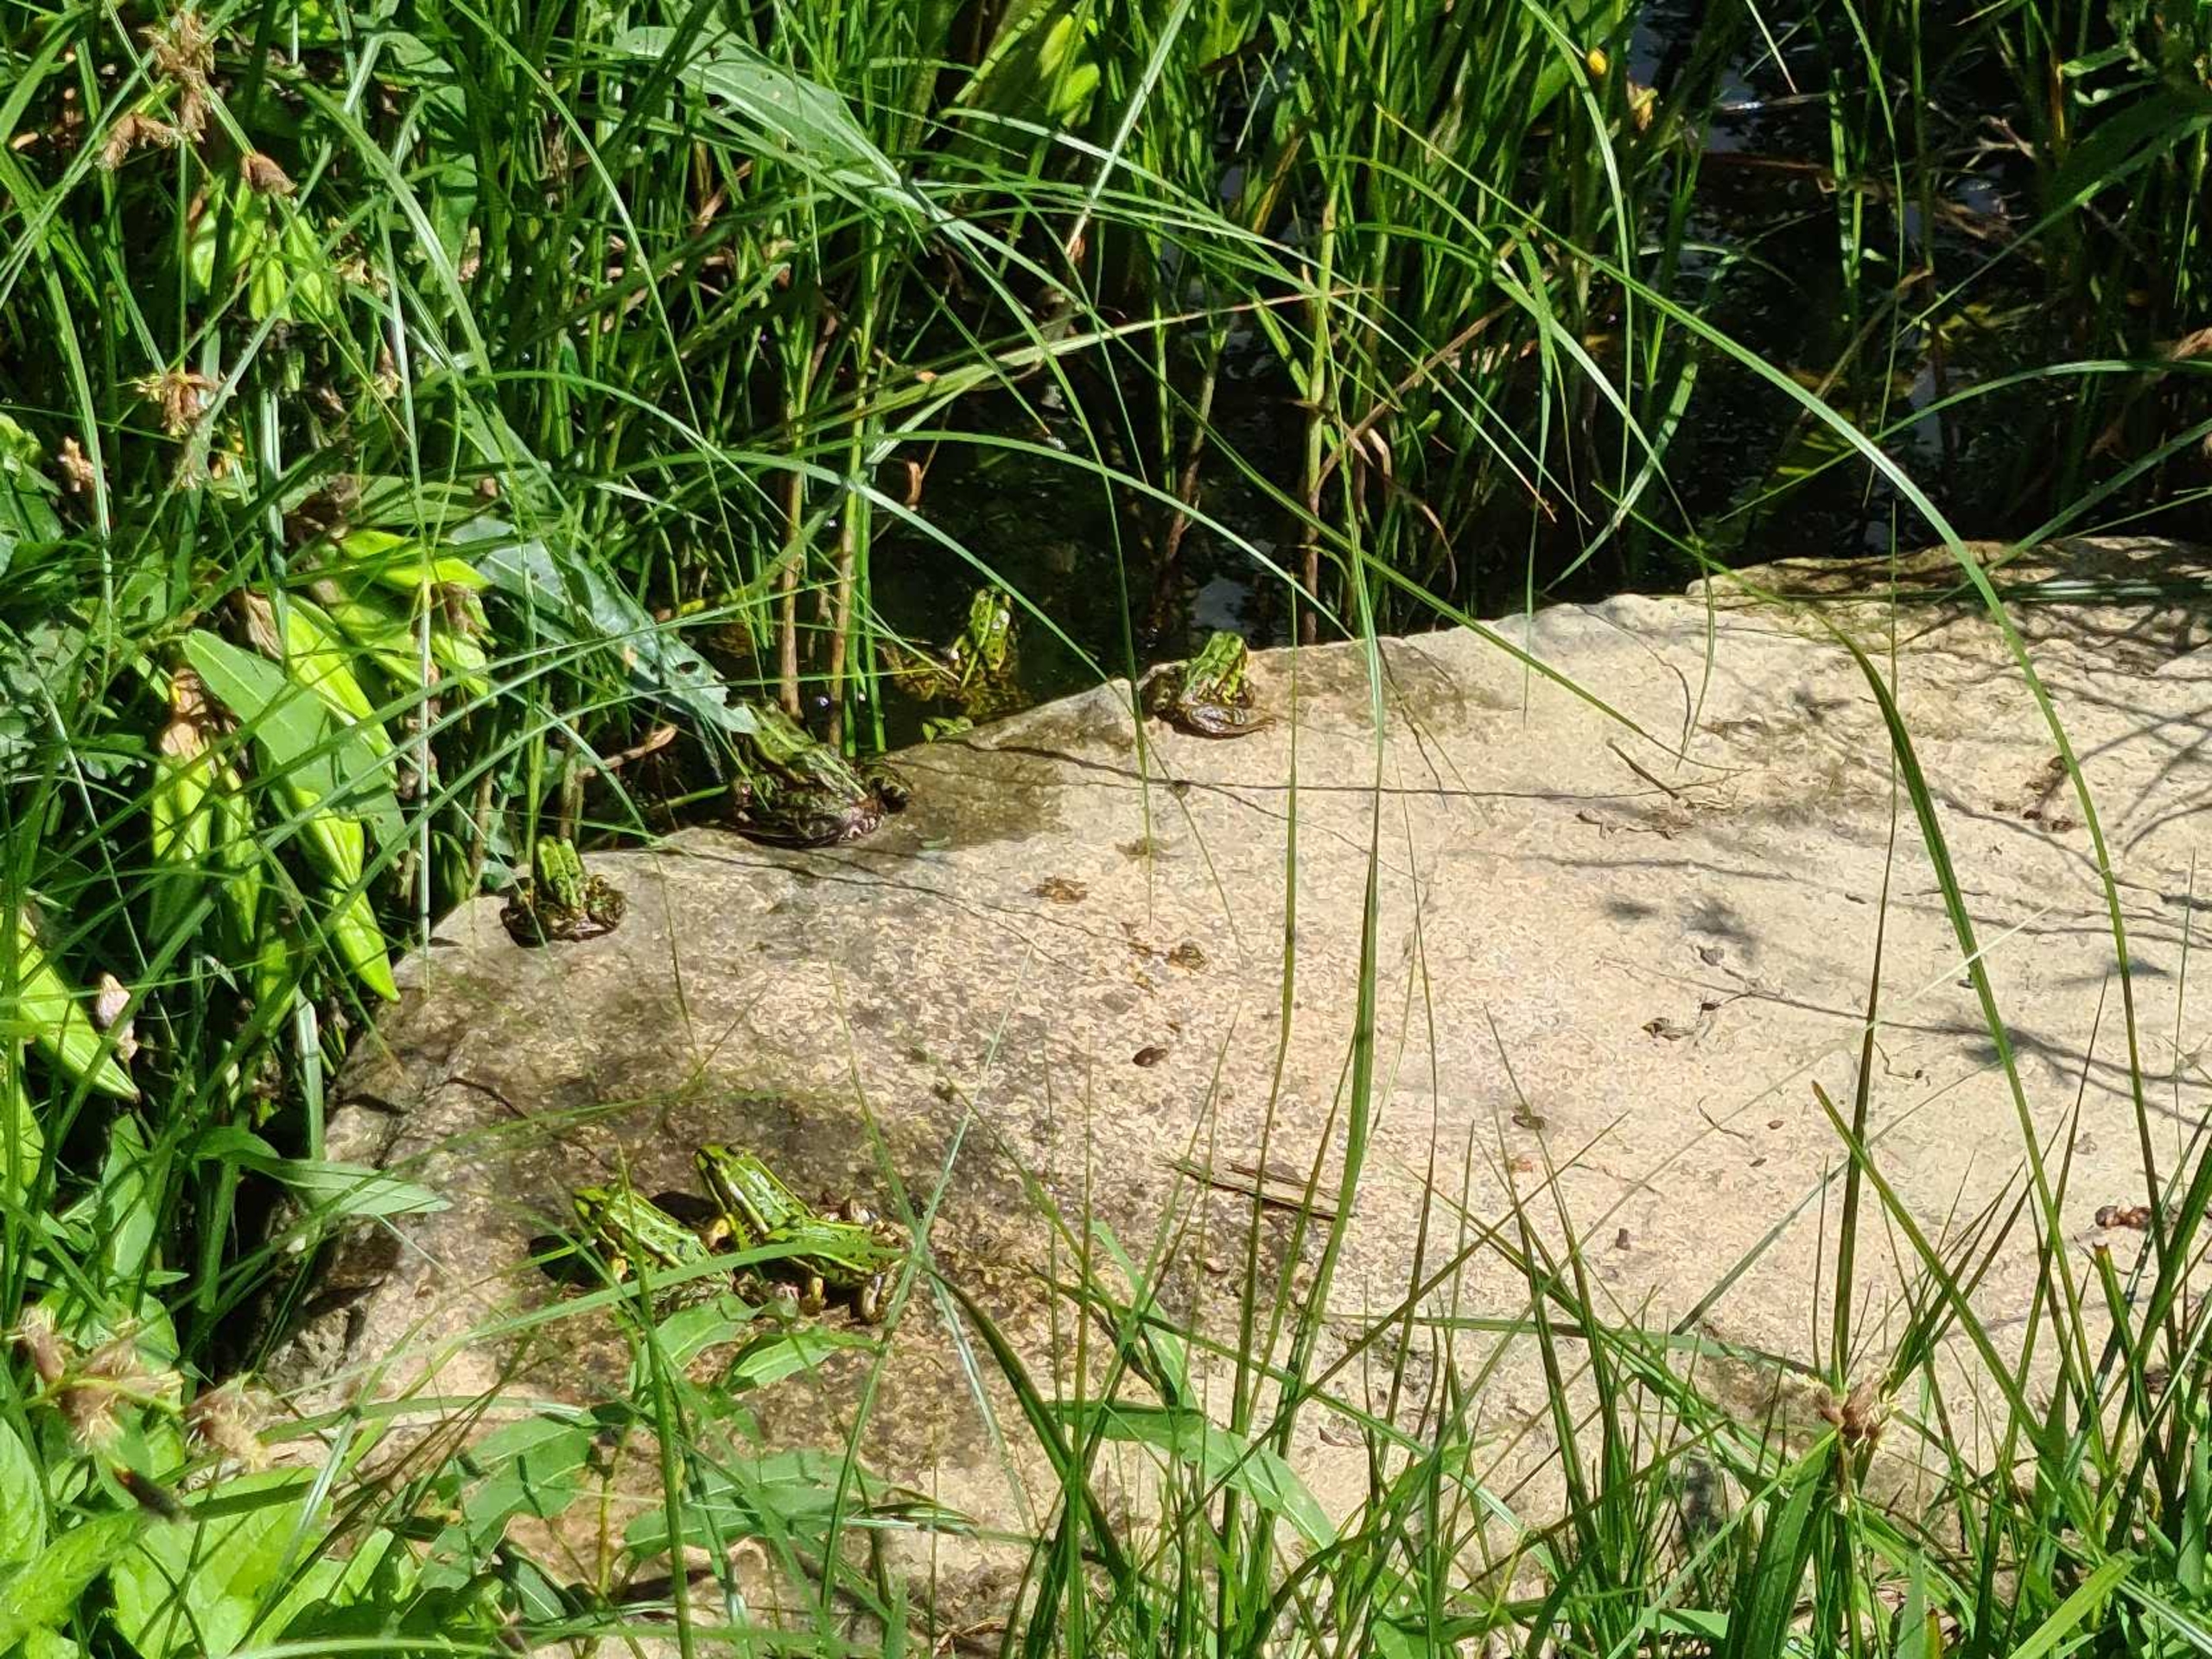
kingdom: Animalia
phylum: Chordata
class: Amphibia
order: Anura
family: Ranidae
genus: Pelophylax
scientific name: Pelophylax lessonae
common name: Grøn frø
